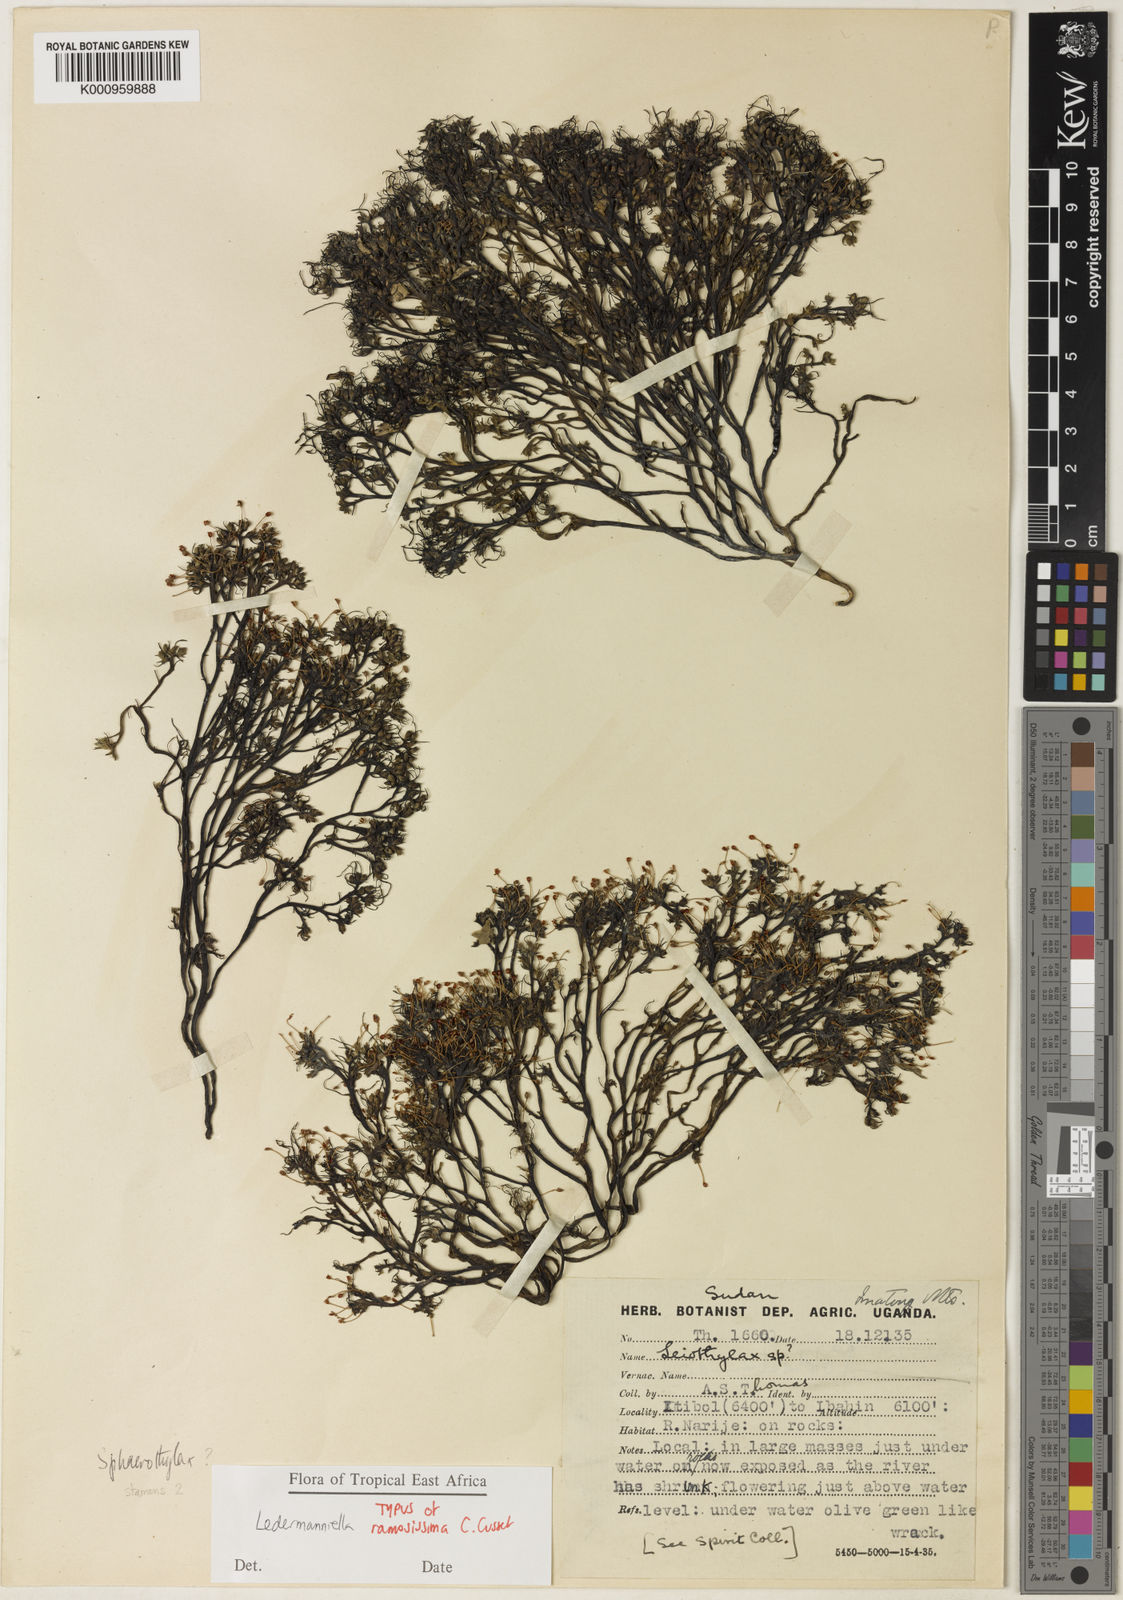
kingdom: Plantae
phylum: Tracheophyta
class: Magnoliopsida
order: Malpighiales
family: Podostemaceae
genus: Ledermanniella
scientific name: Ledermanniella ramosissima
